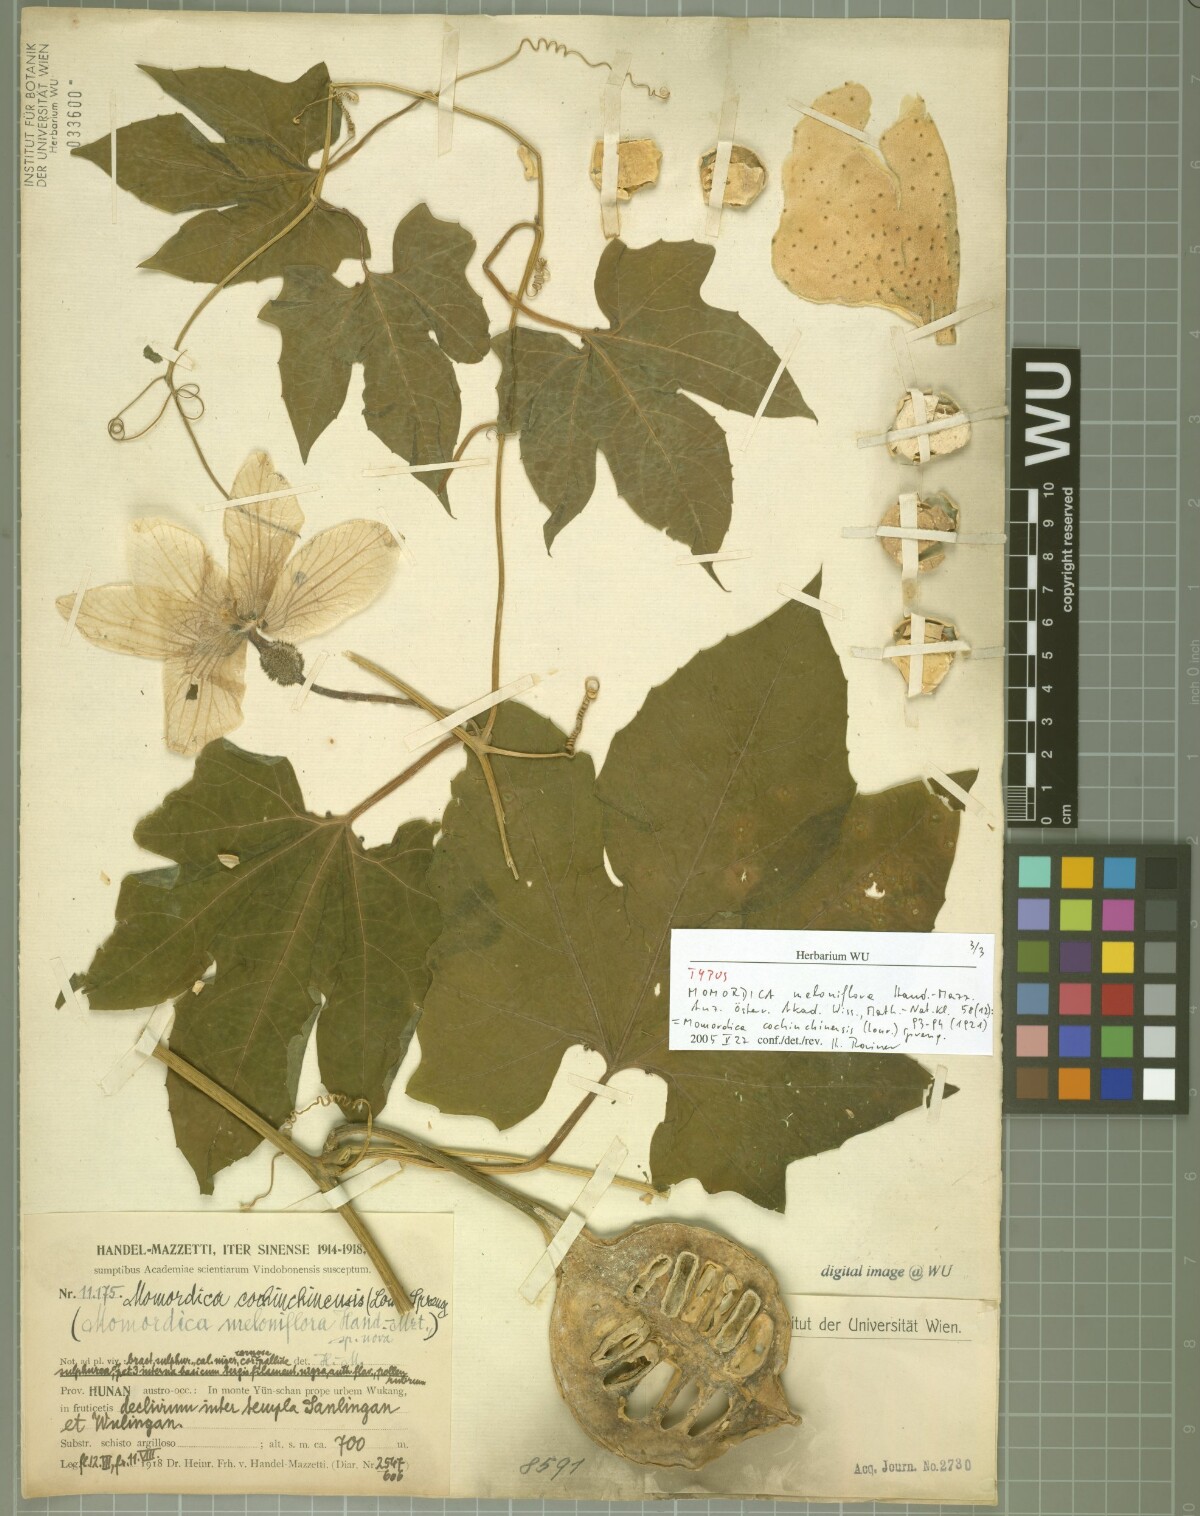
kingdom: Plantae
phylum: Tracheophyta
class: Magnoliopsida
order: Cucurbitales
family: Cucurbitaceae
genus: Momordica
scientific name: Momordica cochinchinensis
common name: Chinese bitter-cucumber
